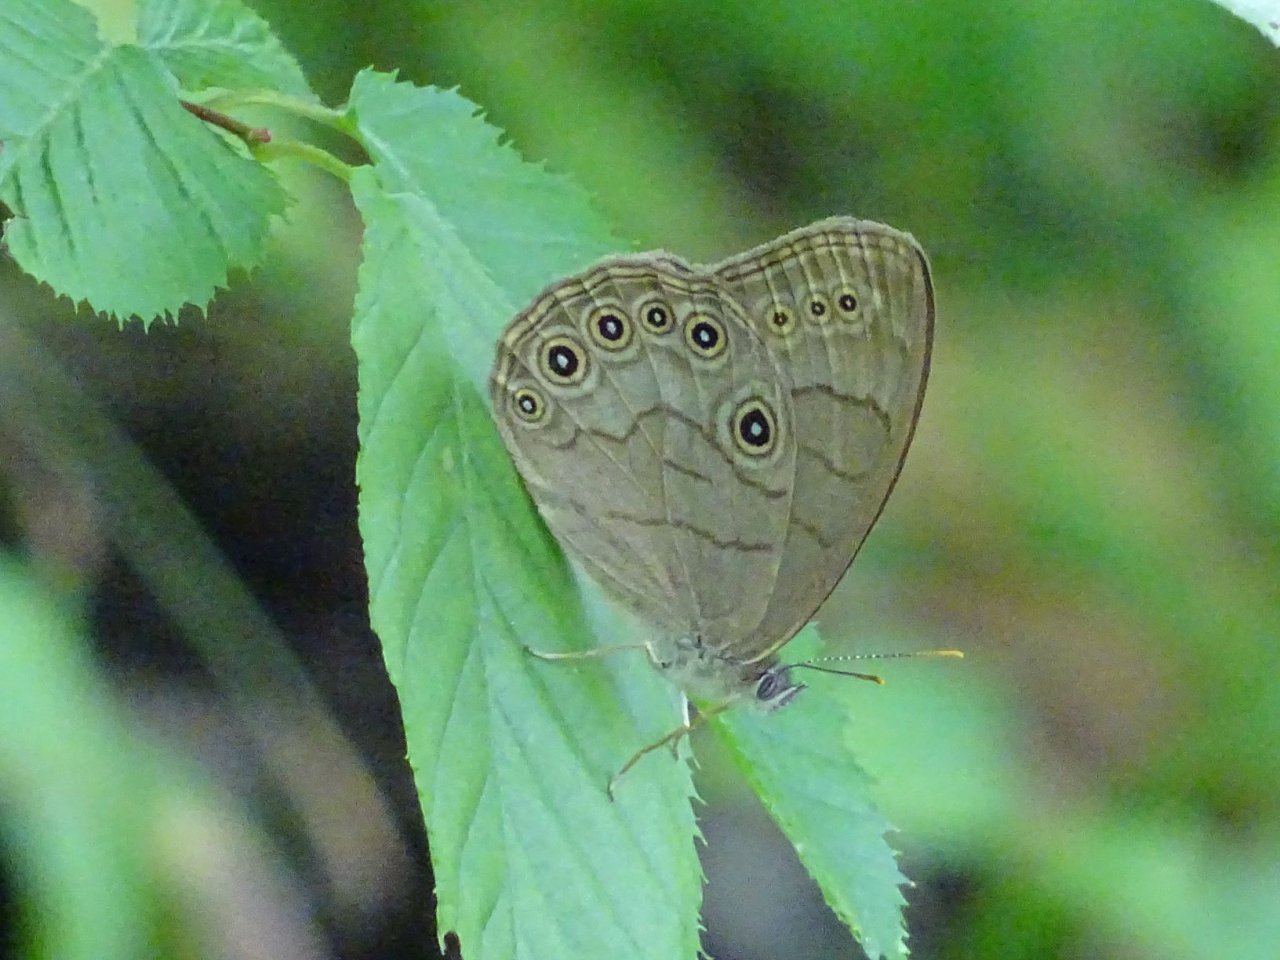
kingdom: Animalia
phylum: Arthropoda
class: Insecta
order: Lepidoptera
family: Nymphalidae
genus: Lethe
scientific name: Lethe eurydice
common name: Appalachian Eyed Brown
